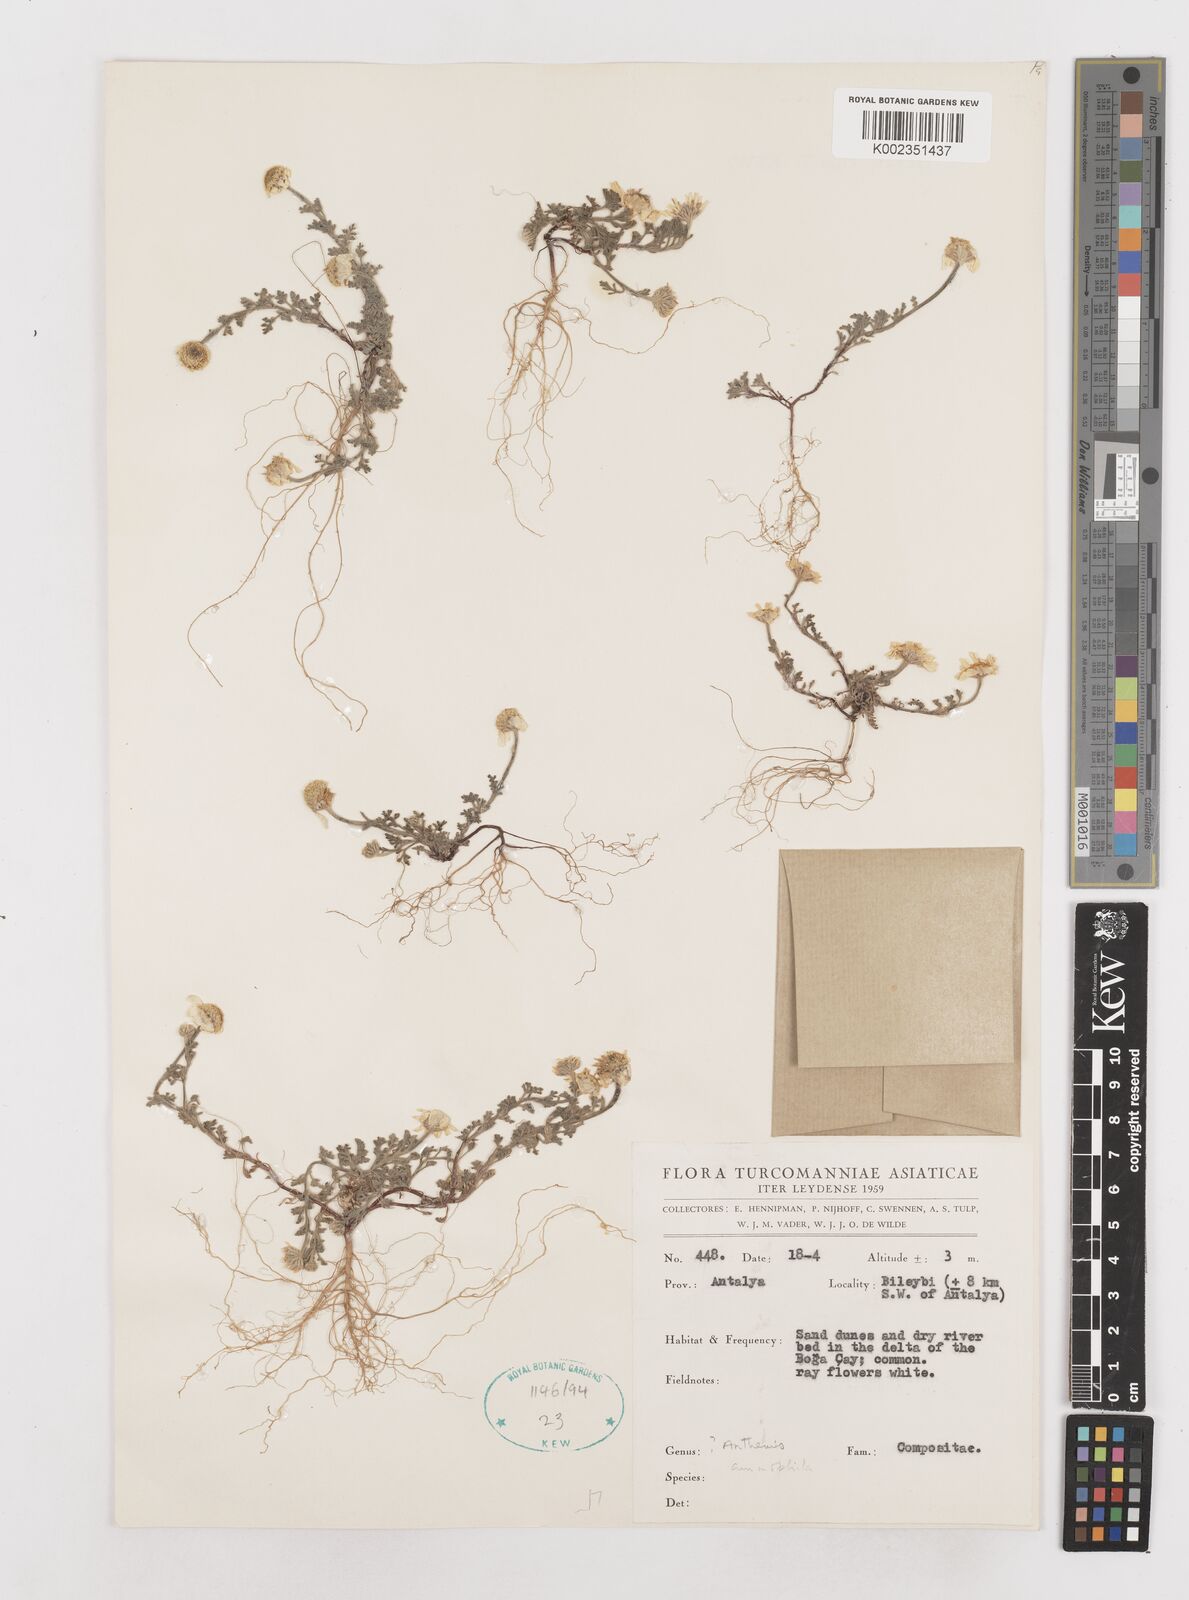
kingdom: Plantae
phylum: Tracheophyta
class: Magnoliopsida
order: Asterales
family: Asteraceae
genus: Anthemis
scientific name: Anthemis ammophila
